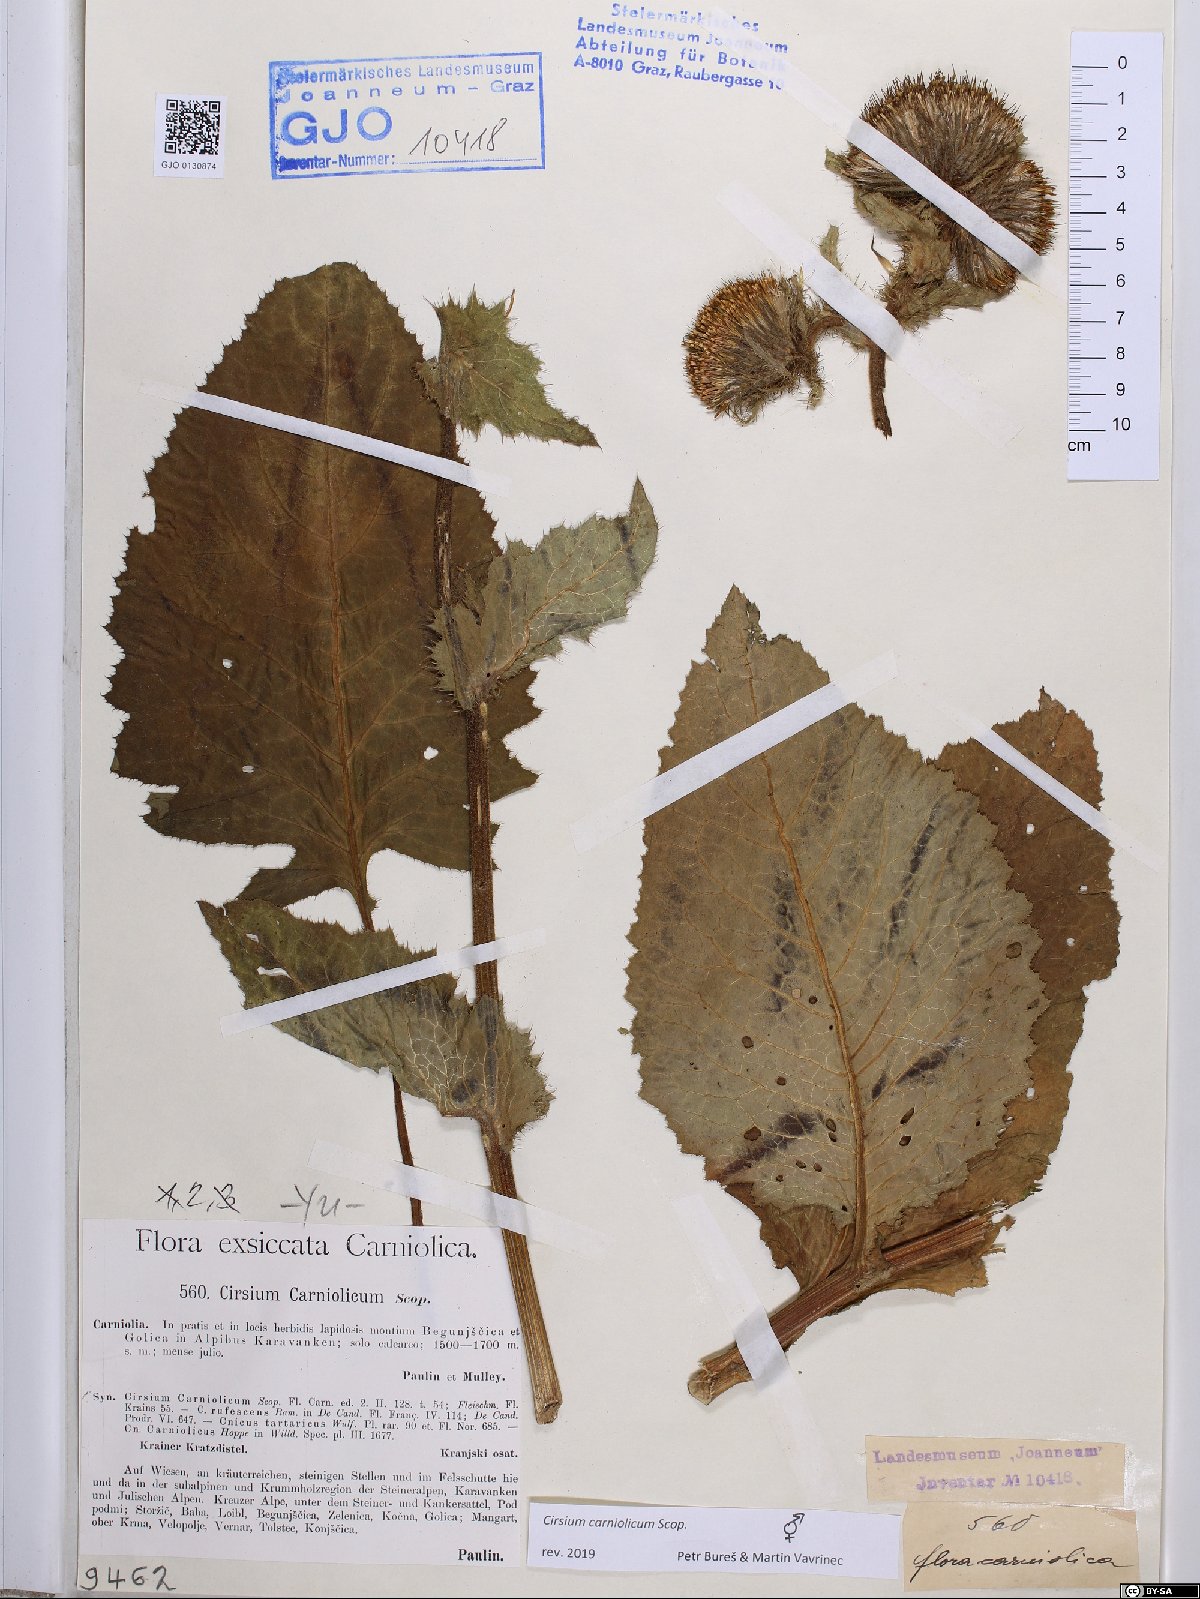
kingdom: Plantae
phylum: Tracheophyta
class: Magnoliopsida
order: Asterales
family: Asteraceae
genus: Cirsium
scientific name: Cirsium carniolicum
